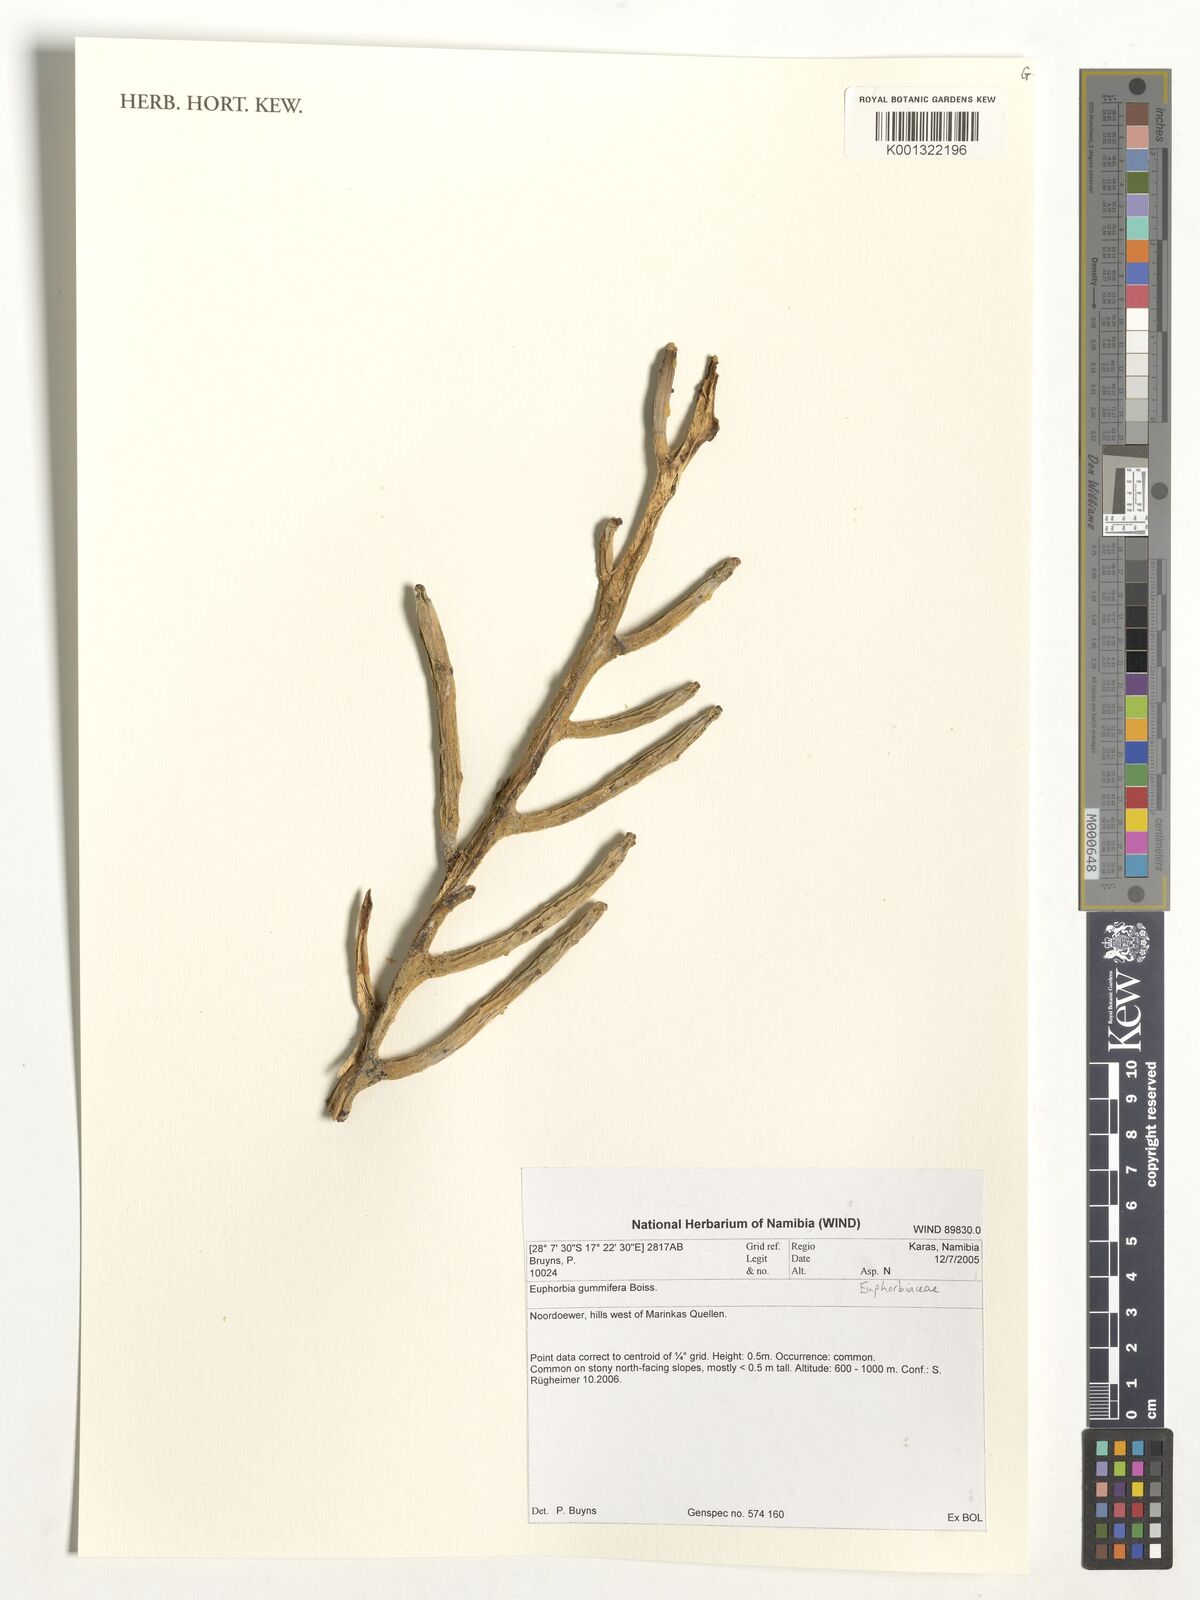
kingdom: Plantae
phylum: Tracheophyta
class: Magnoliopsida
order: Malpighiales
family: Euphorbiaceae
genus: Euphorbia
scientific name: Euphorbia gummifera
